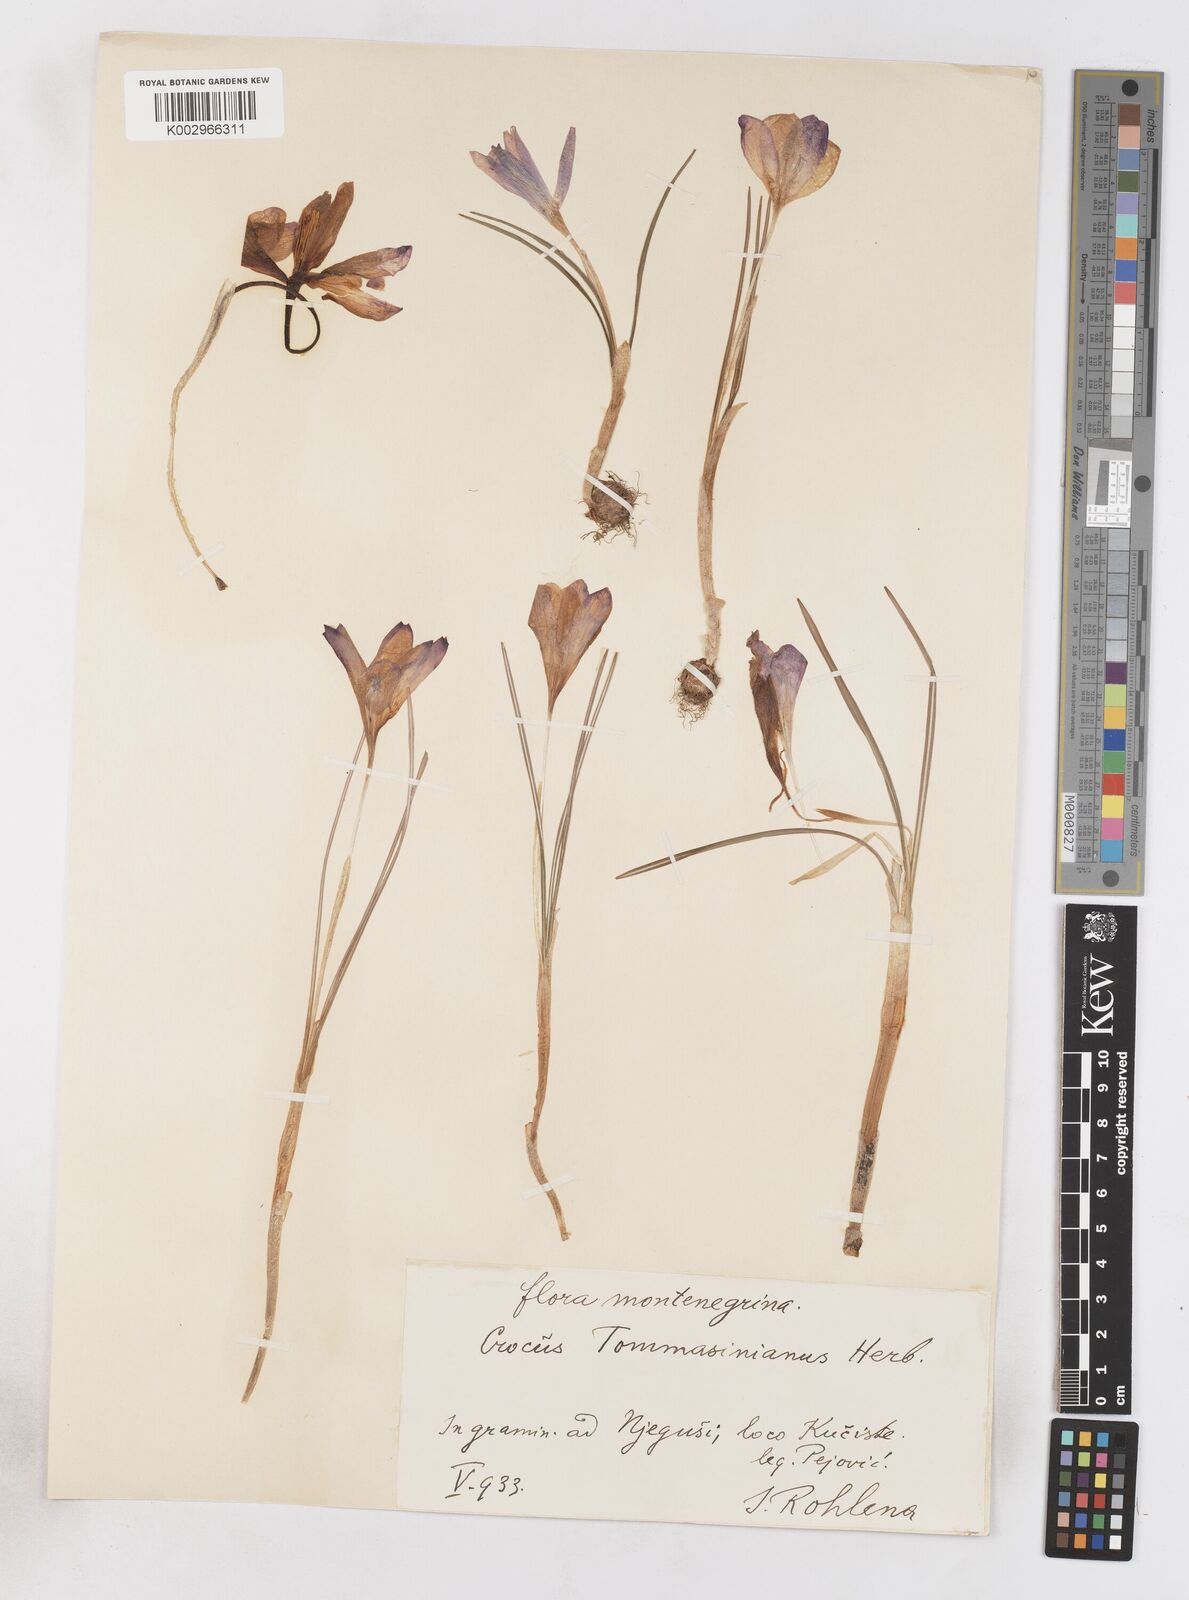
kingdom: Plantae
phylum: Tracheophyta
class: Liliopsida
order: Asparagales
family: Iridaceae
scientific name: Iridaceae
